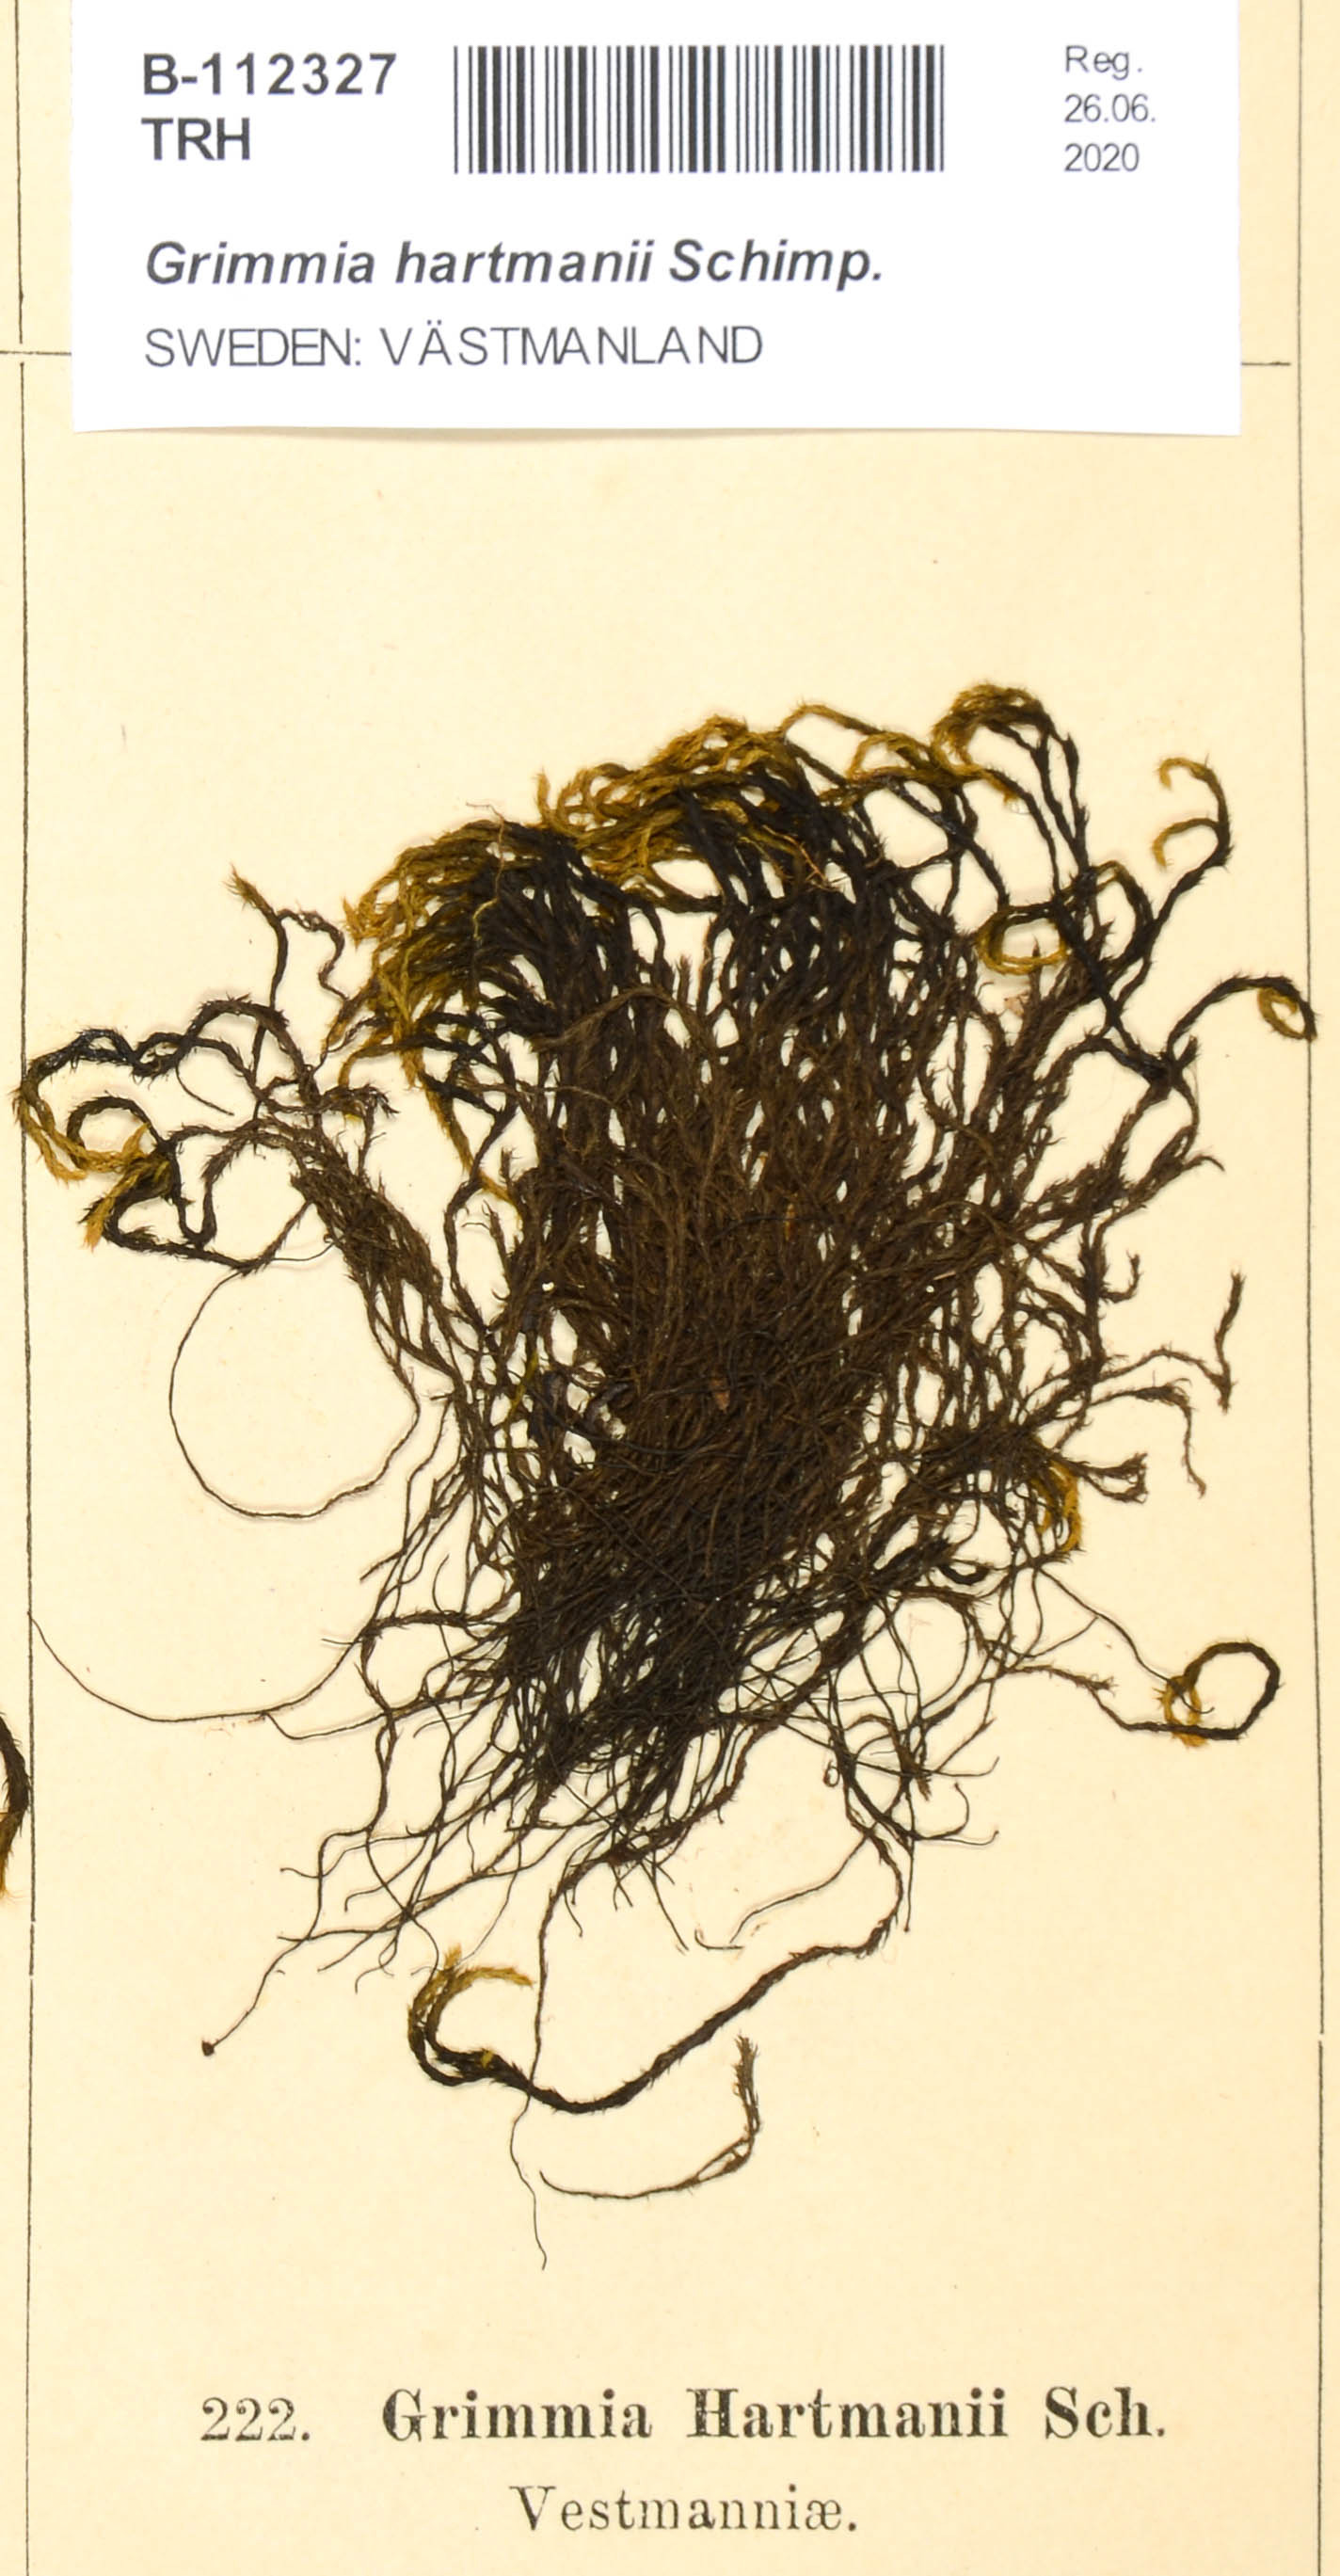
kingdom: Plantae
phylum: Bryophyta
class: Bryopsida
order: Grimmiales
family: Grimmiaceae
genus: Grimmia
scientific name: Grimmia hartmanii
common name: Hartman's grimmia
